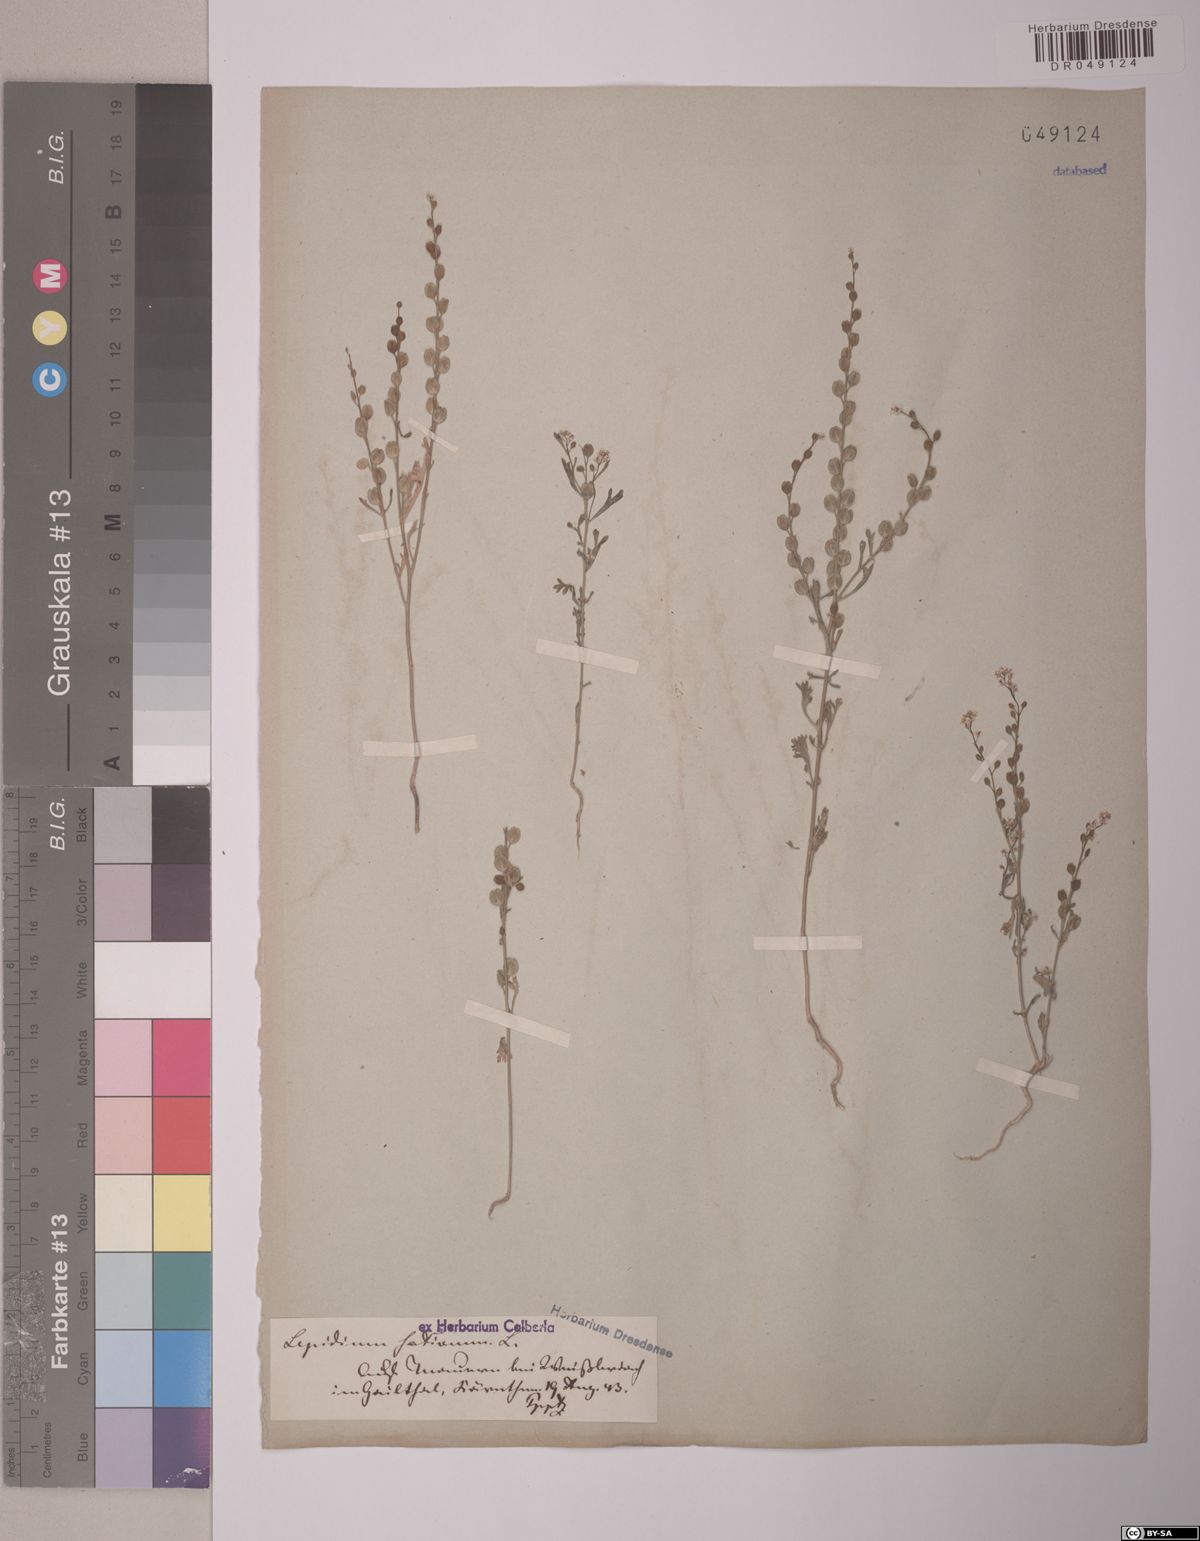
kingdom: Plantae
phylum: Tracheophyta
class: Magnoliopsida
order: Brassicales
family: Brassicaceae
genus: Lepidium
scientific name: Lepidium sativum
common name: Garden cress
